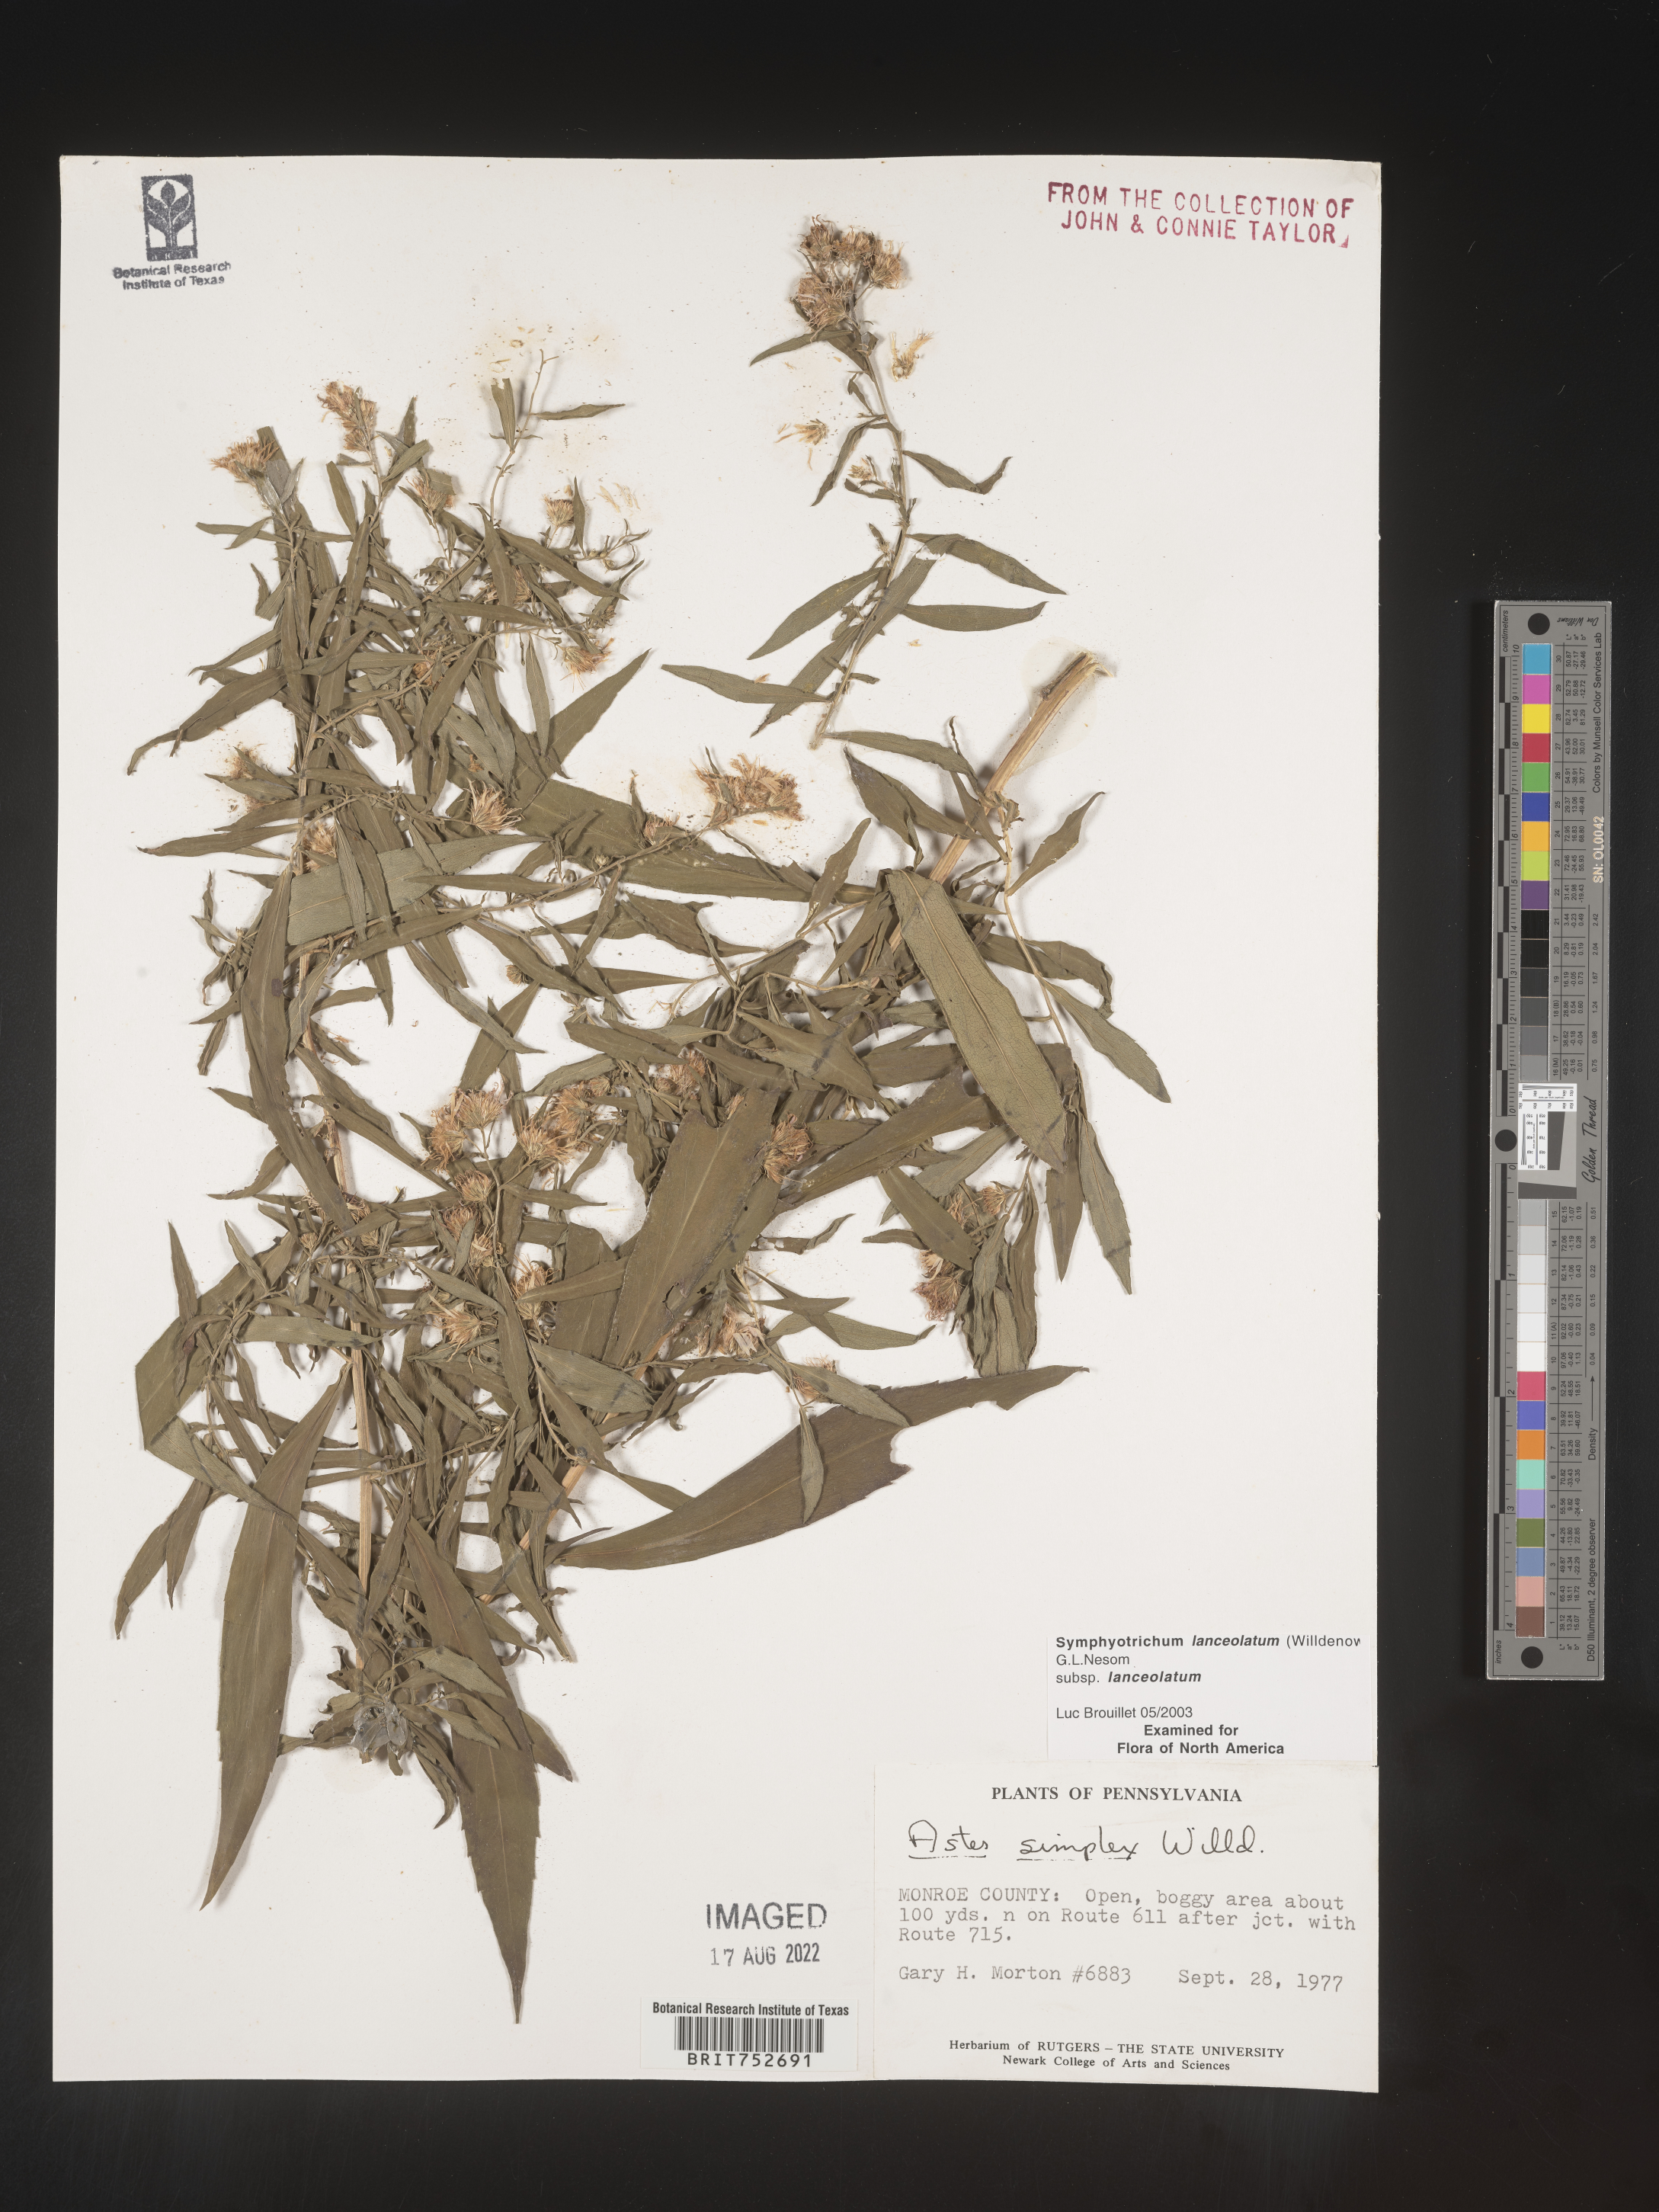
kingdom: Plantae
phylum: Tracheophyta
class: Magnoliopsida
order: Asterales
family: Asteraceae
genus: Symphyotrichum
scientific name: Symphyotrichum lanceolatum
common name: Panicled aster
